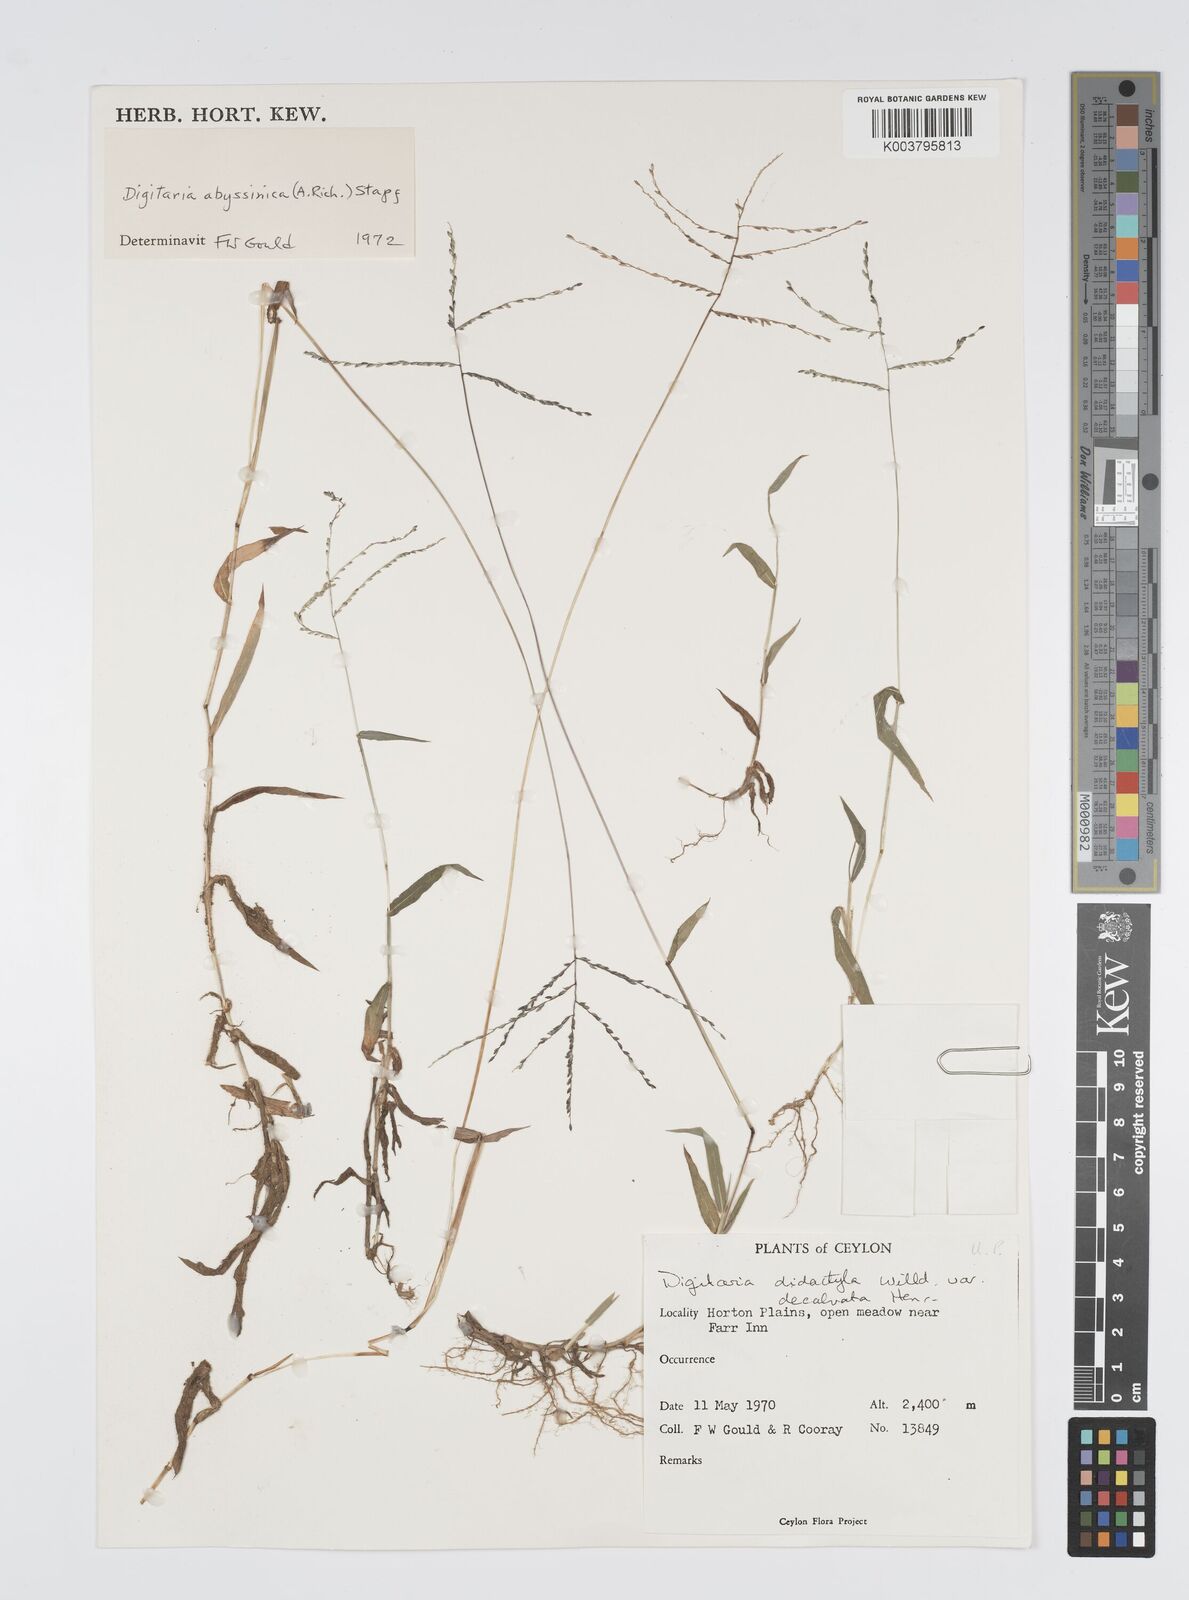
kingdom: Plantae
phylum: Tracheophyta
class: Liliopsida
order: Poales
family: Poaceae
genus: Digitaria
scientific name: Digitaria abyssinica
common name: African couchgrass
